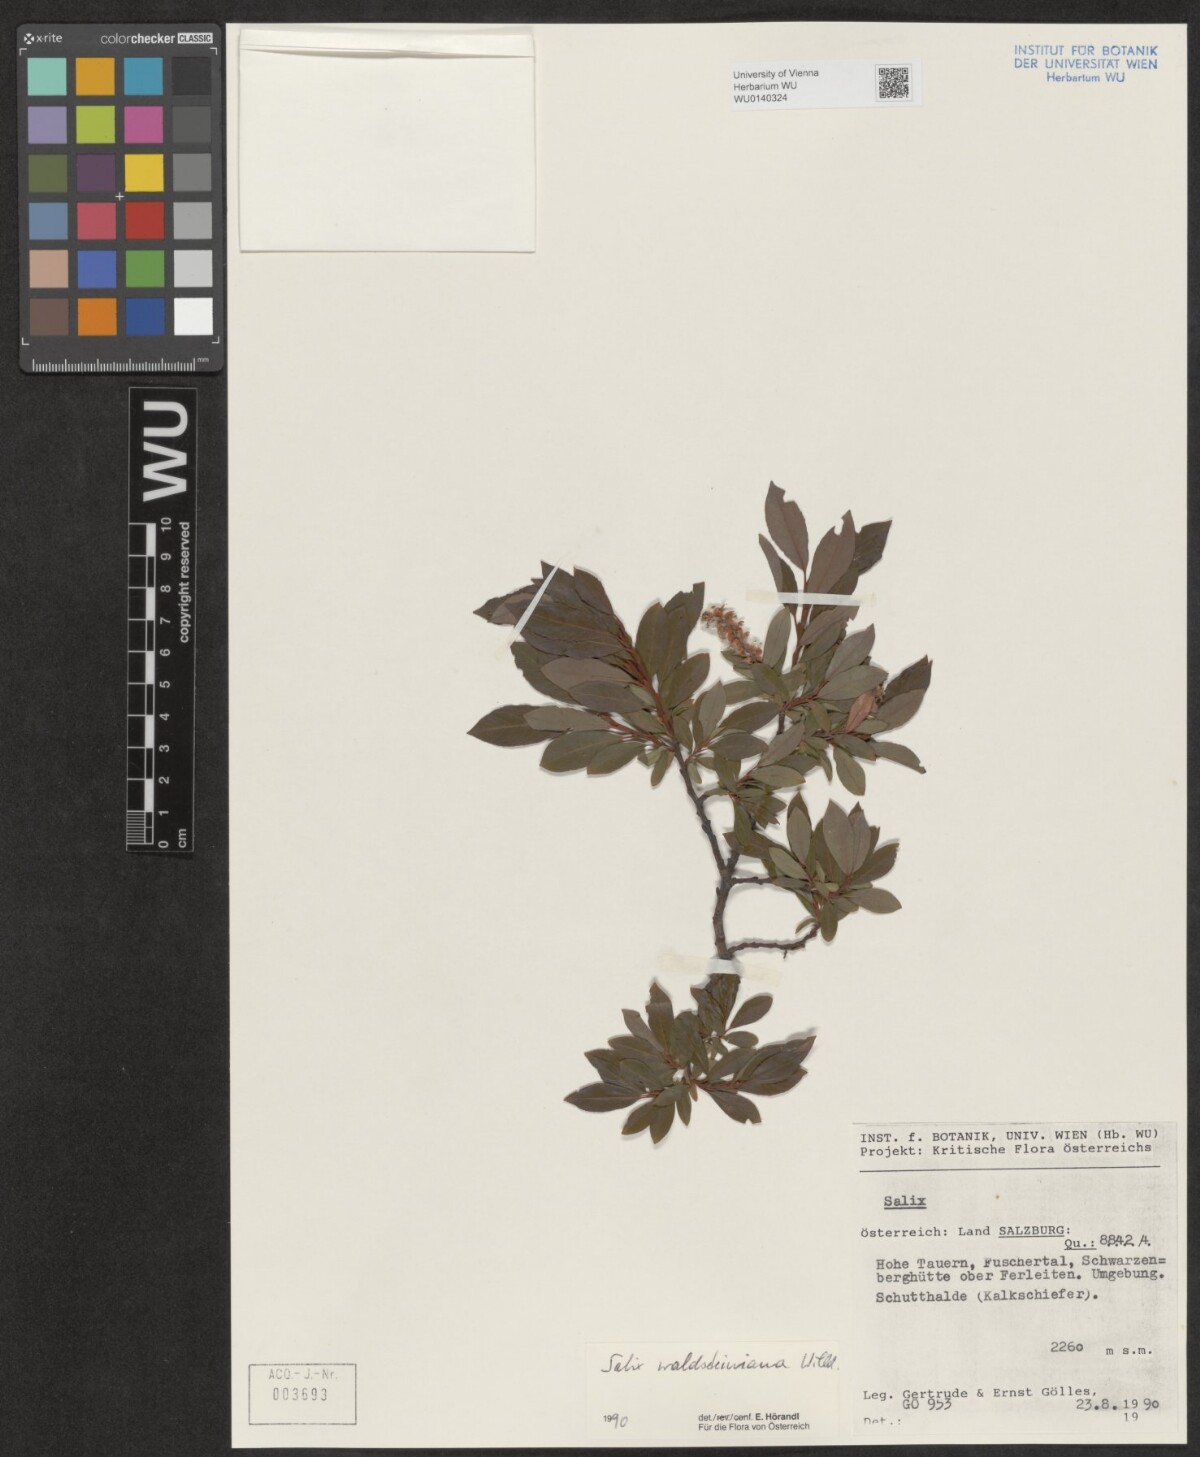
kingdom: Plantae
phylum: Tracheophyta
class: Magnoliopsida
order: Malpighiales
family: Salicaceae
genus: Salix
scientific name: Salix waldsteiniana
